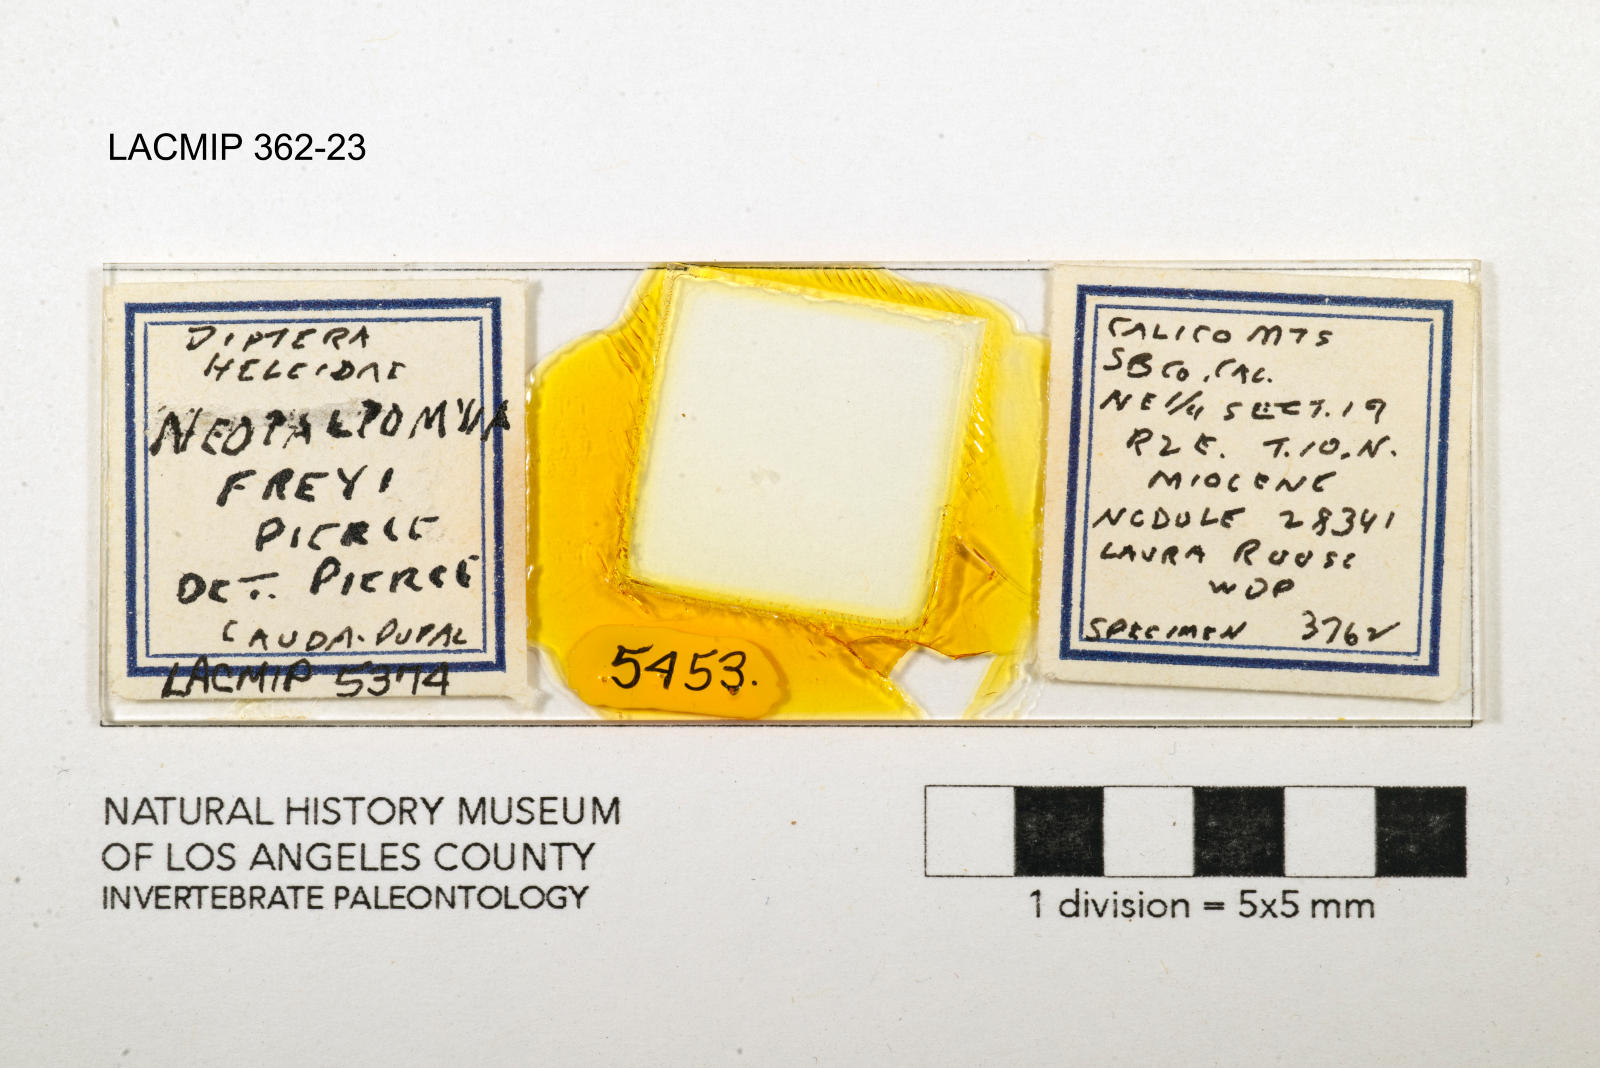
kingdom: Animalia
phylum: Arthropoda
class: Insecta
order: Diptera
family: Ceratopogonidae
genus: Palpomyia
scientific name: Palpomyia freyi
